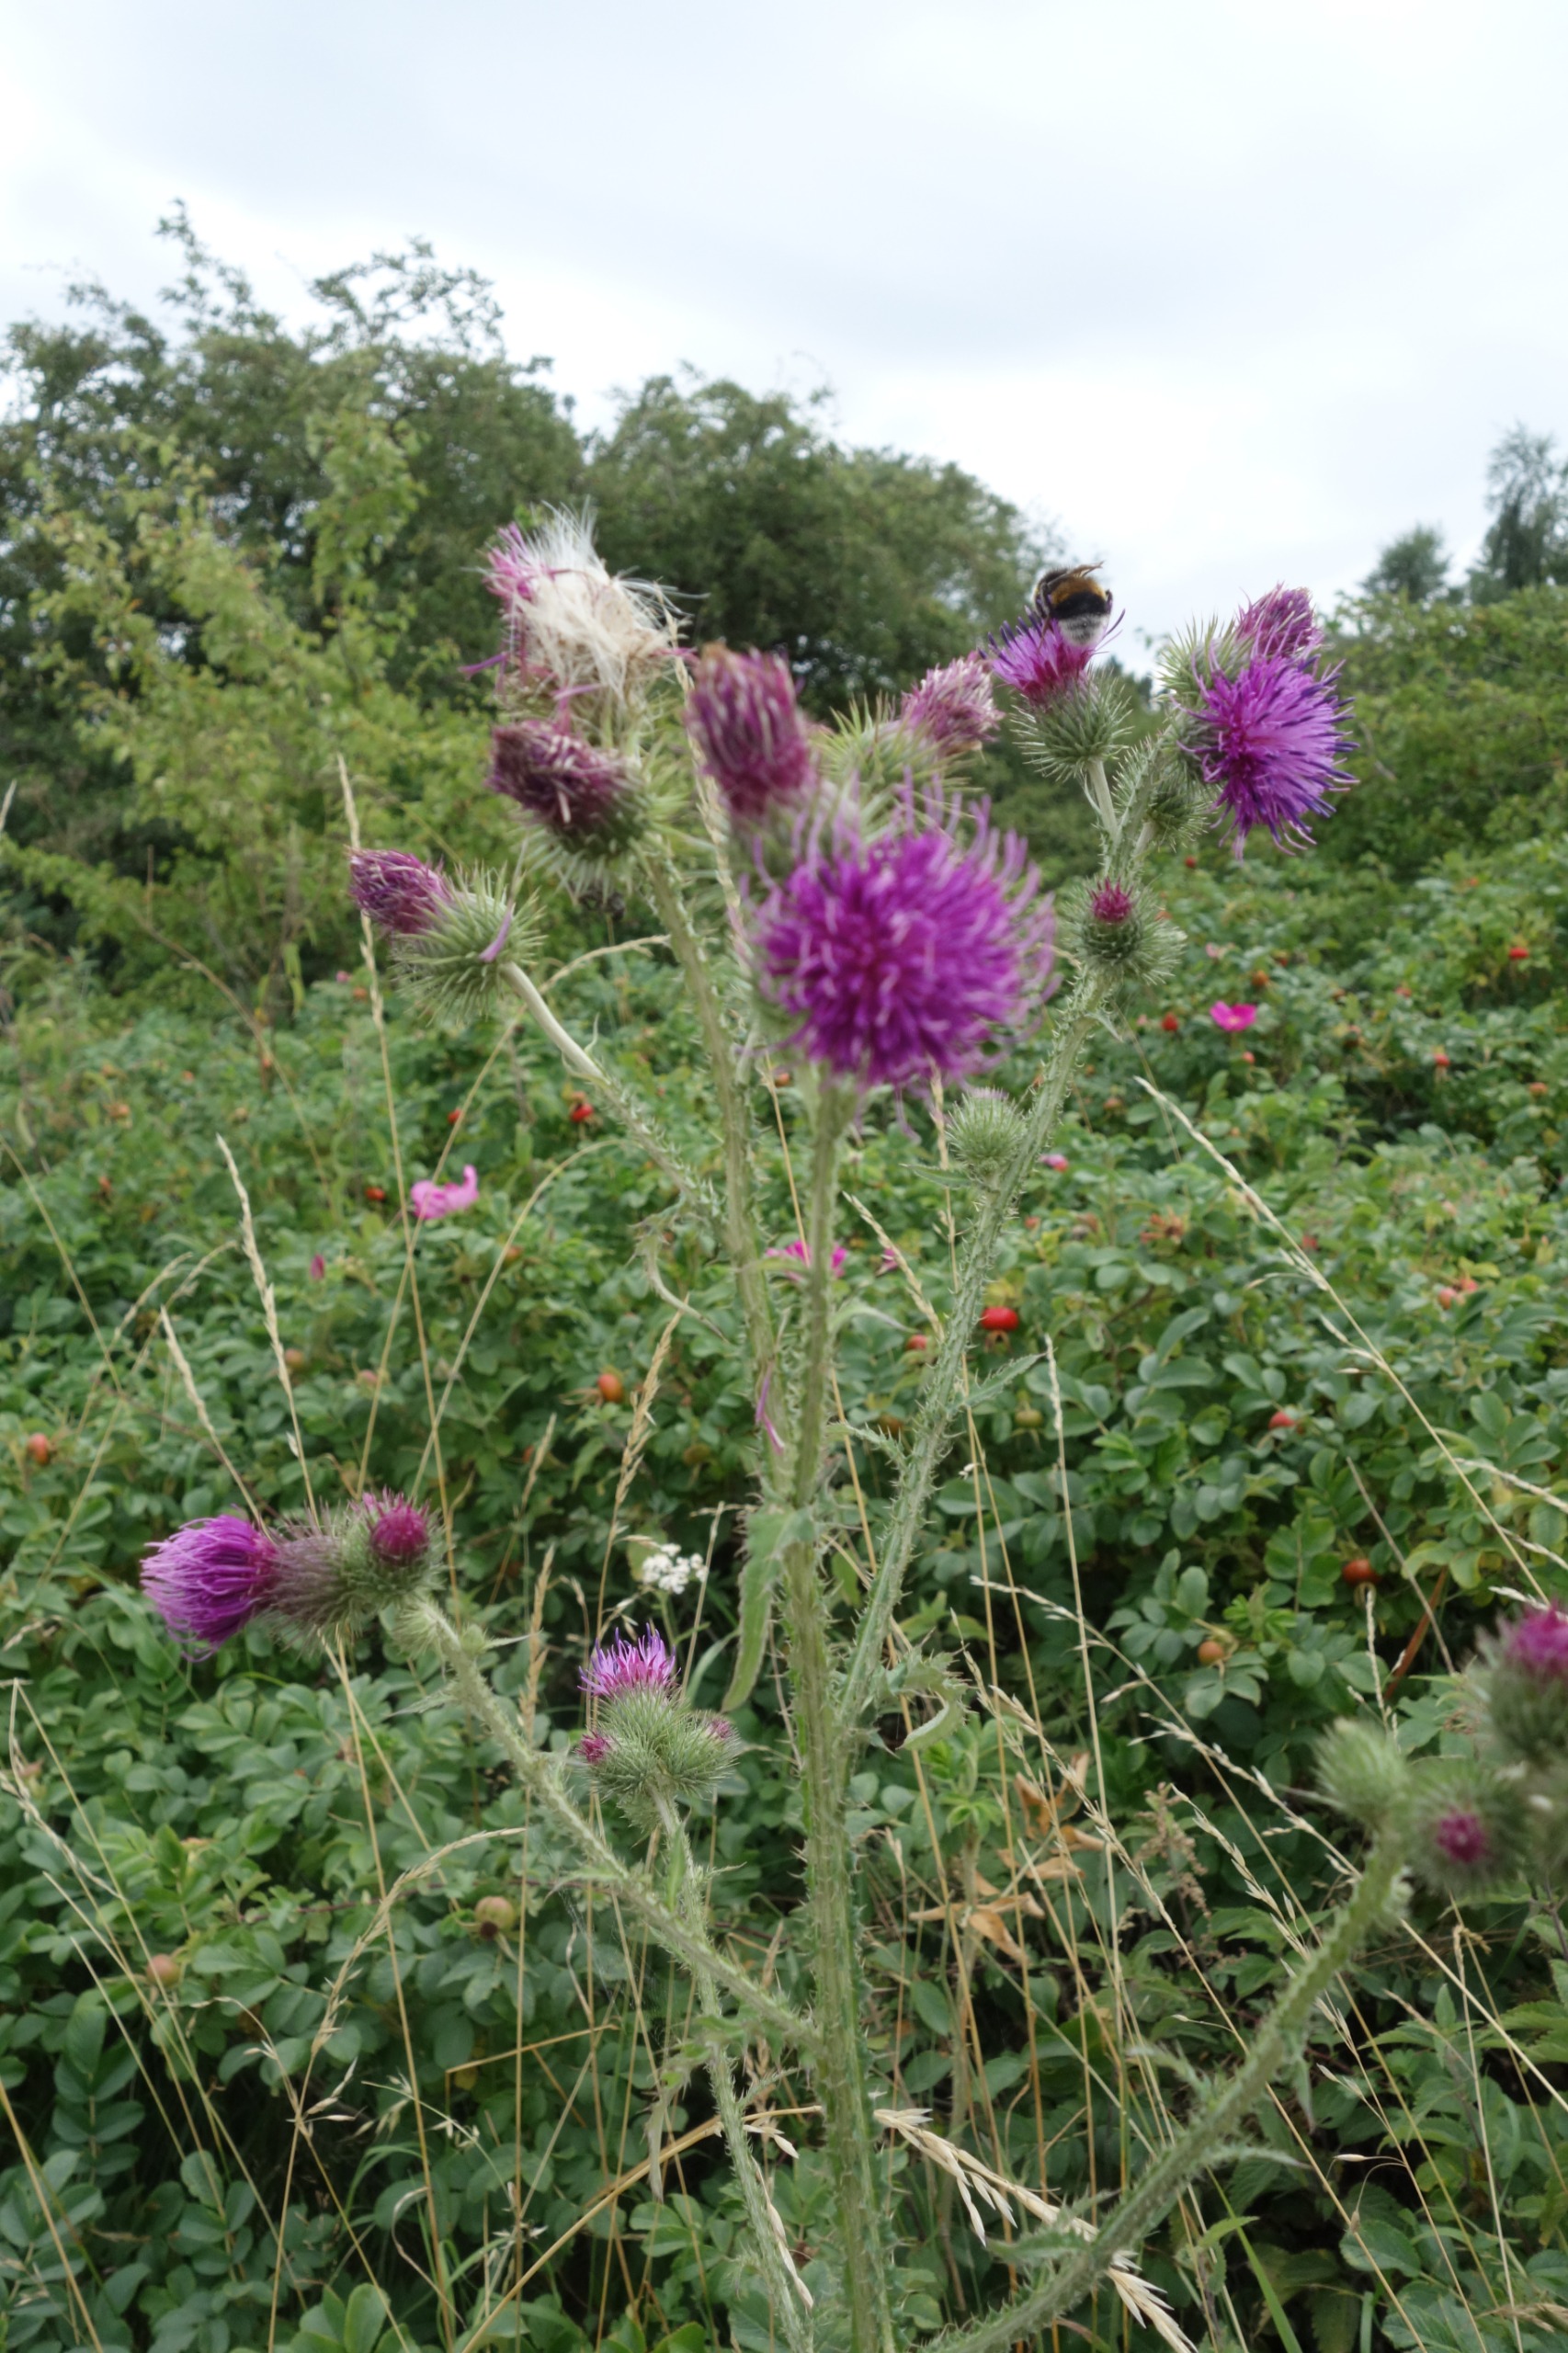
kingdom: Plantae
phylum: Tracheophyta
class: Magnoliopsida
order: Asterales
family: Asteraceae
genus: Carduus
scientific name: Carduus crispus
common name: Kruset tidsel
